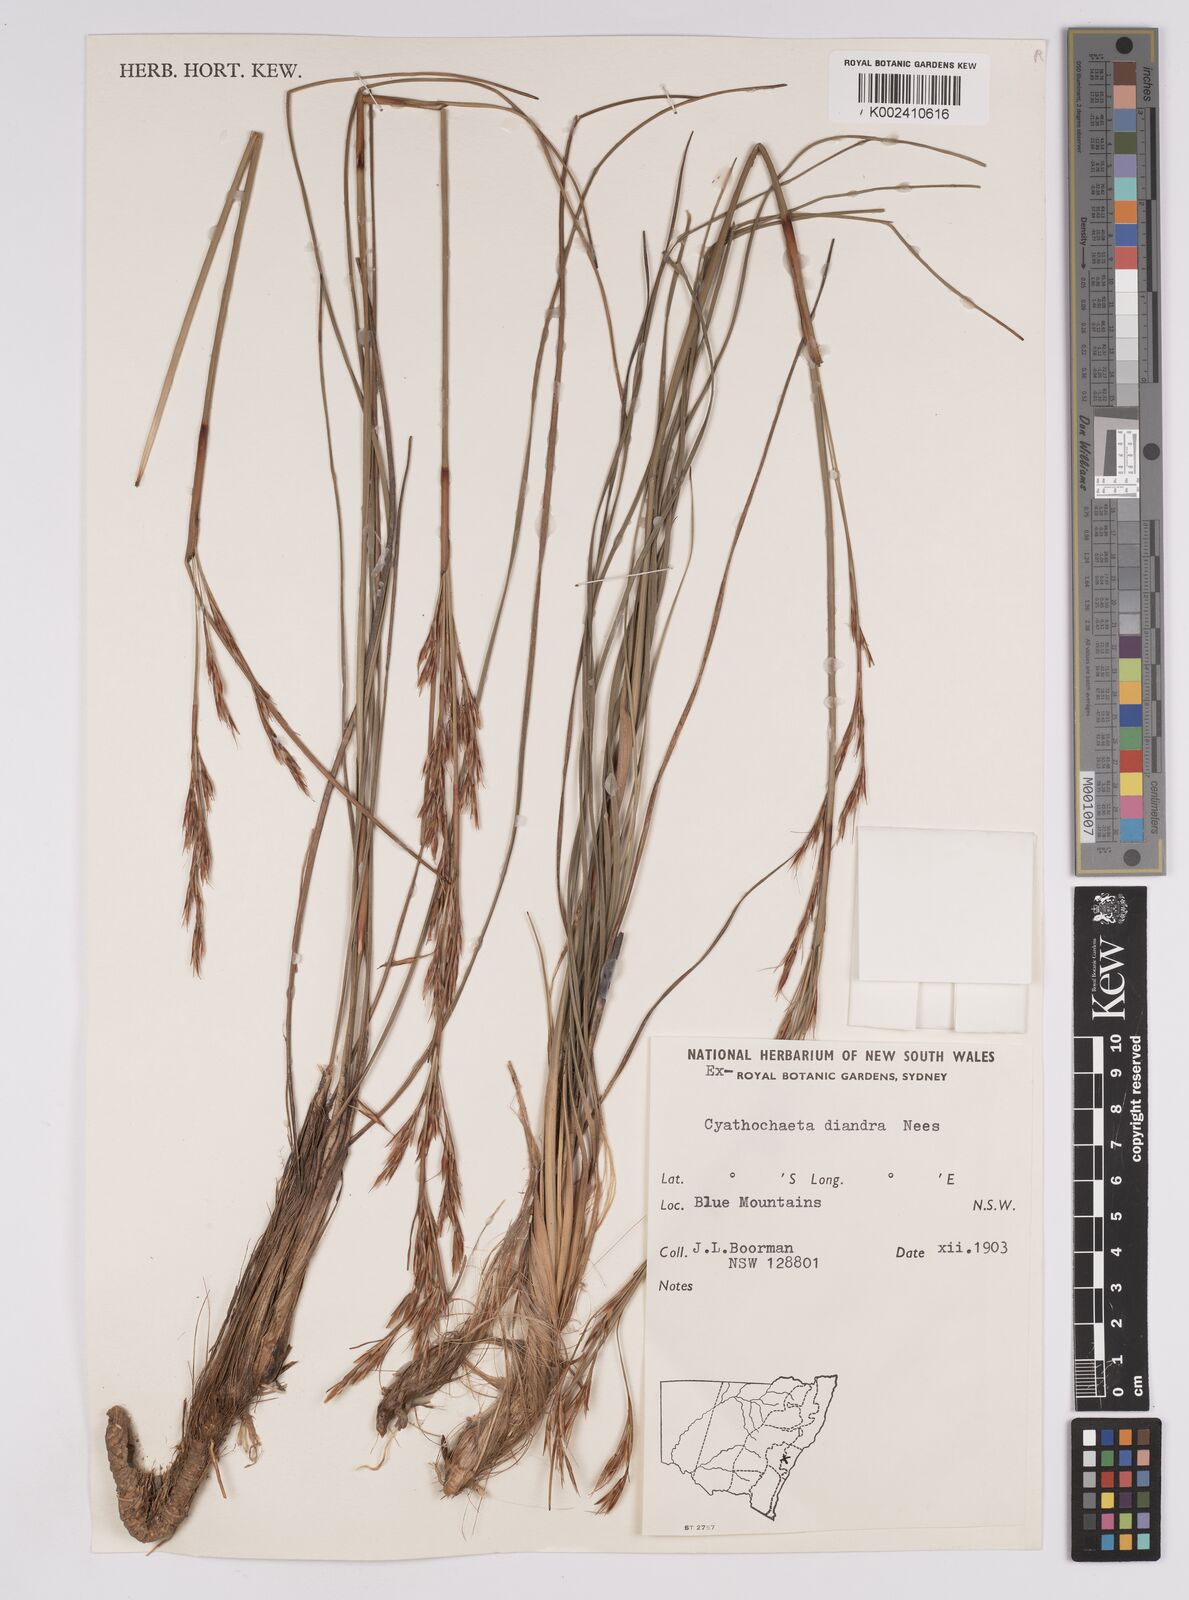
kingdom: Plantae
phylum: Tracheophyta
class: Liliopsida
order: Poales
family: Cyperaceae
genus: Cyathochaeta
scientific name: Cyathochaeta diandra
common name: Sheath rush
